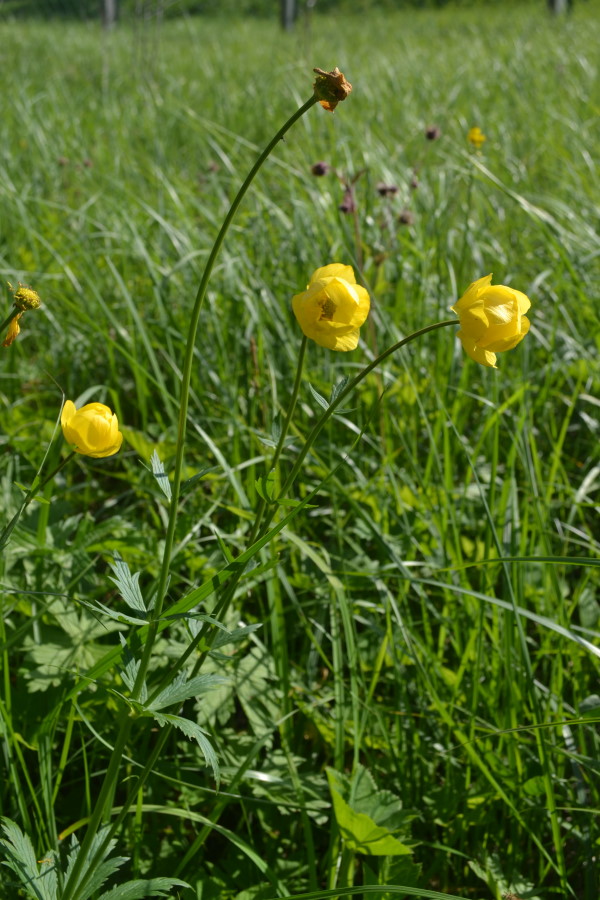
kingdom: Plantae
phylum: Tracheophyta
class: Magnoliopsida
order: Ranunculales
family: Ranunculaceae
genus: Trollius
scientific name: Trollius europaeus
